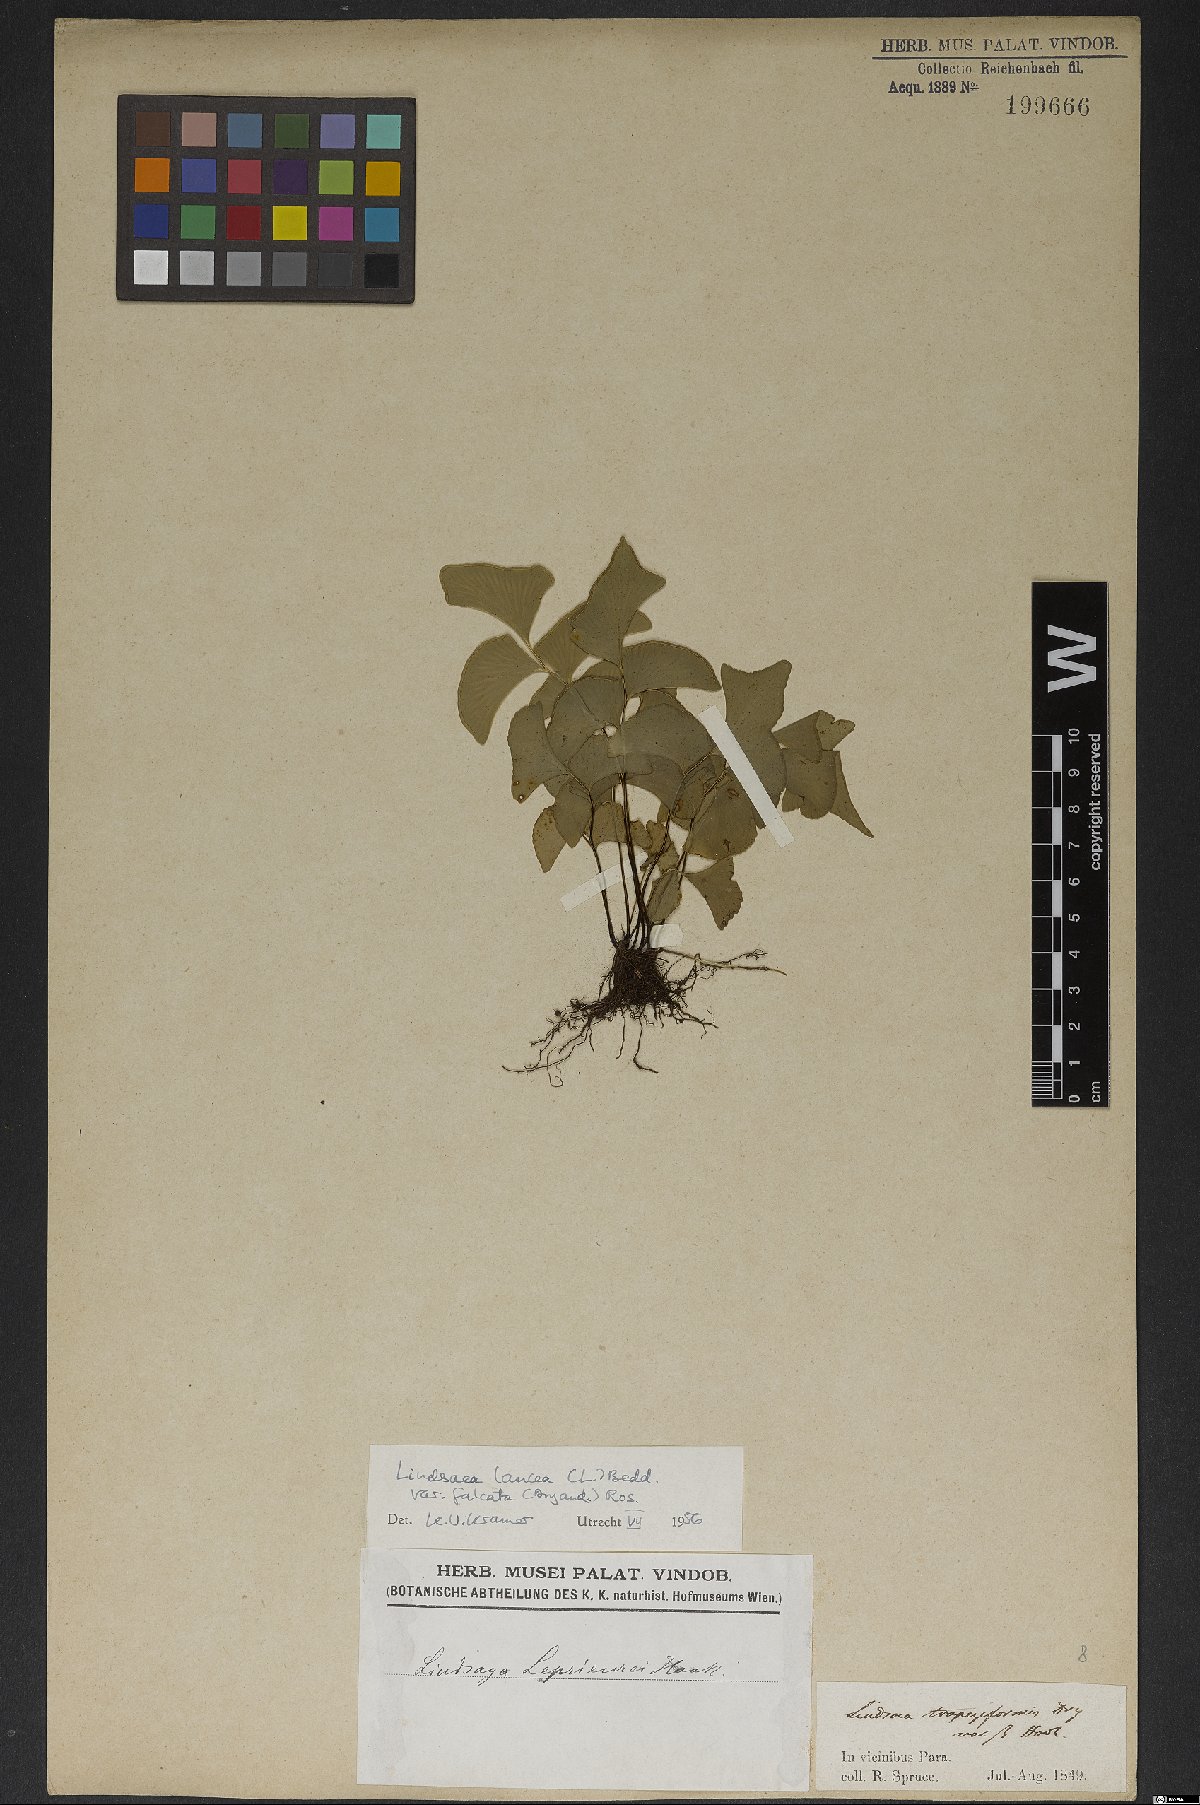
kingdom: Plantae
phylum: Tracheophyta
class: Polypodiopsida
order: Polypodiales
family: Lindsaeaceae
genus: Lindsaea
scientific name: Lindsaea falcata
